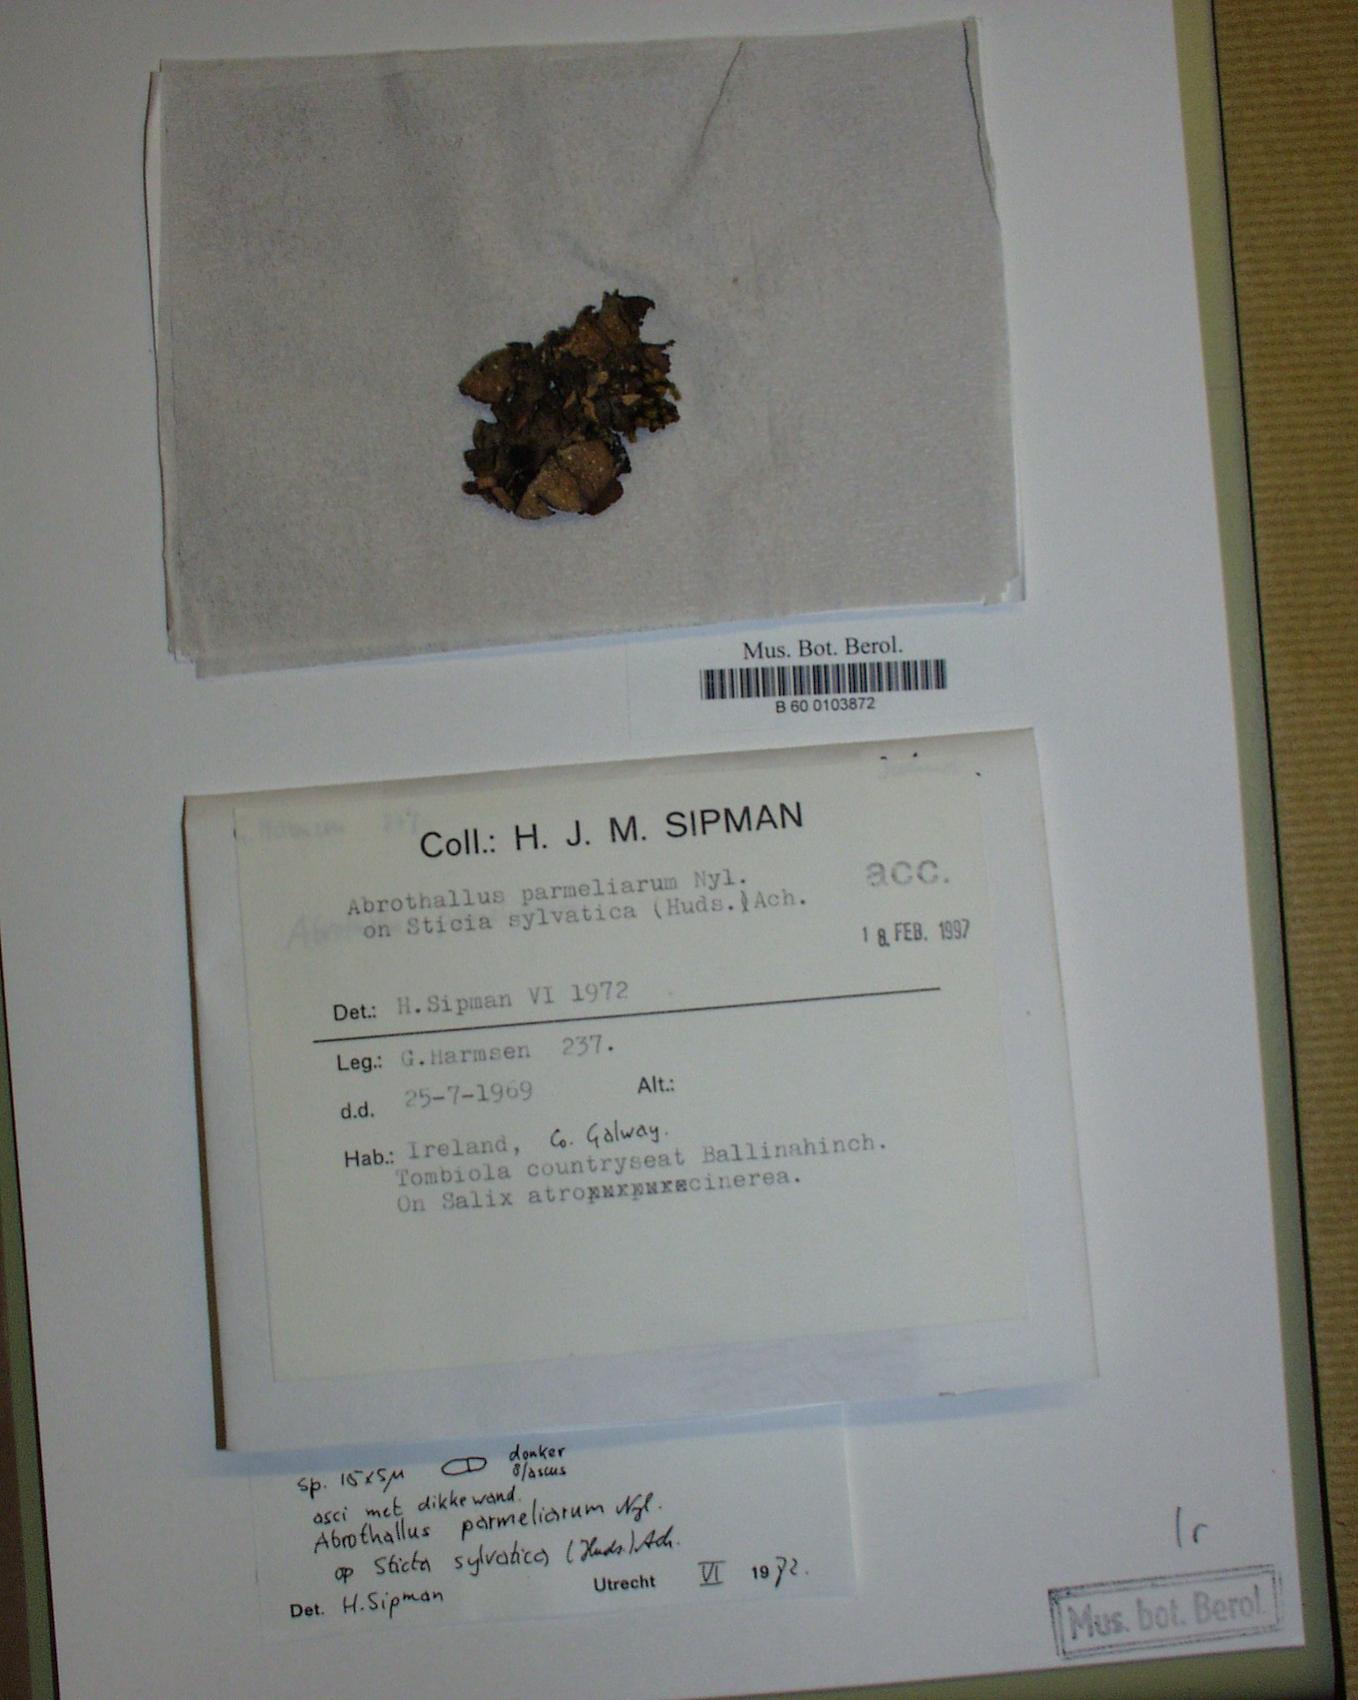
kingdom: Fungi
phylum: Ascomycota
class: Dothideomycetes
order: Abrothallales
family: Abrothallaceae
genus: Abrothallus
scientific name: Abrothallus parmeliarum
